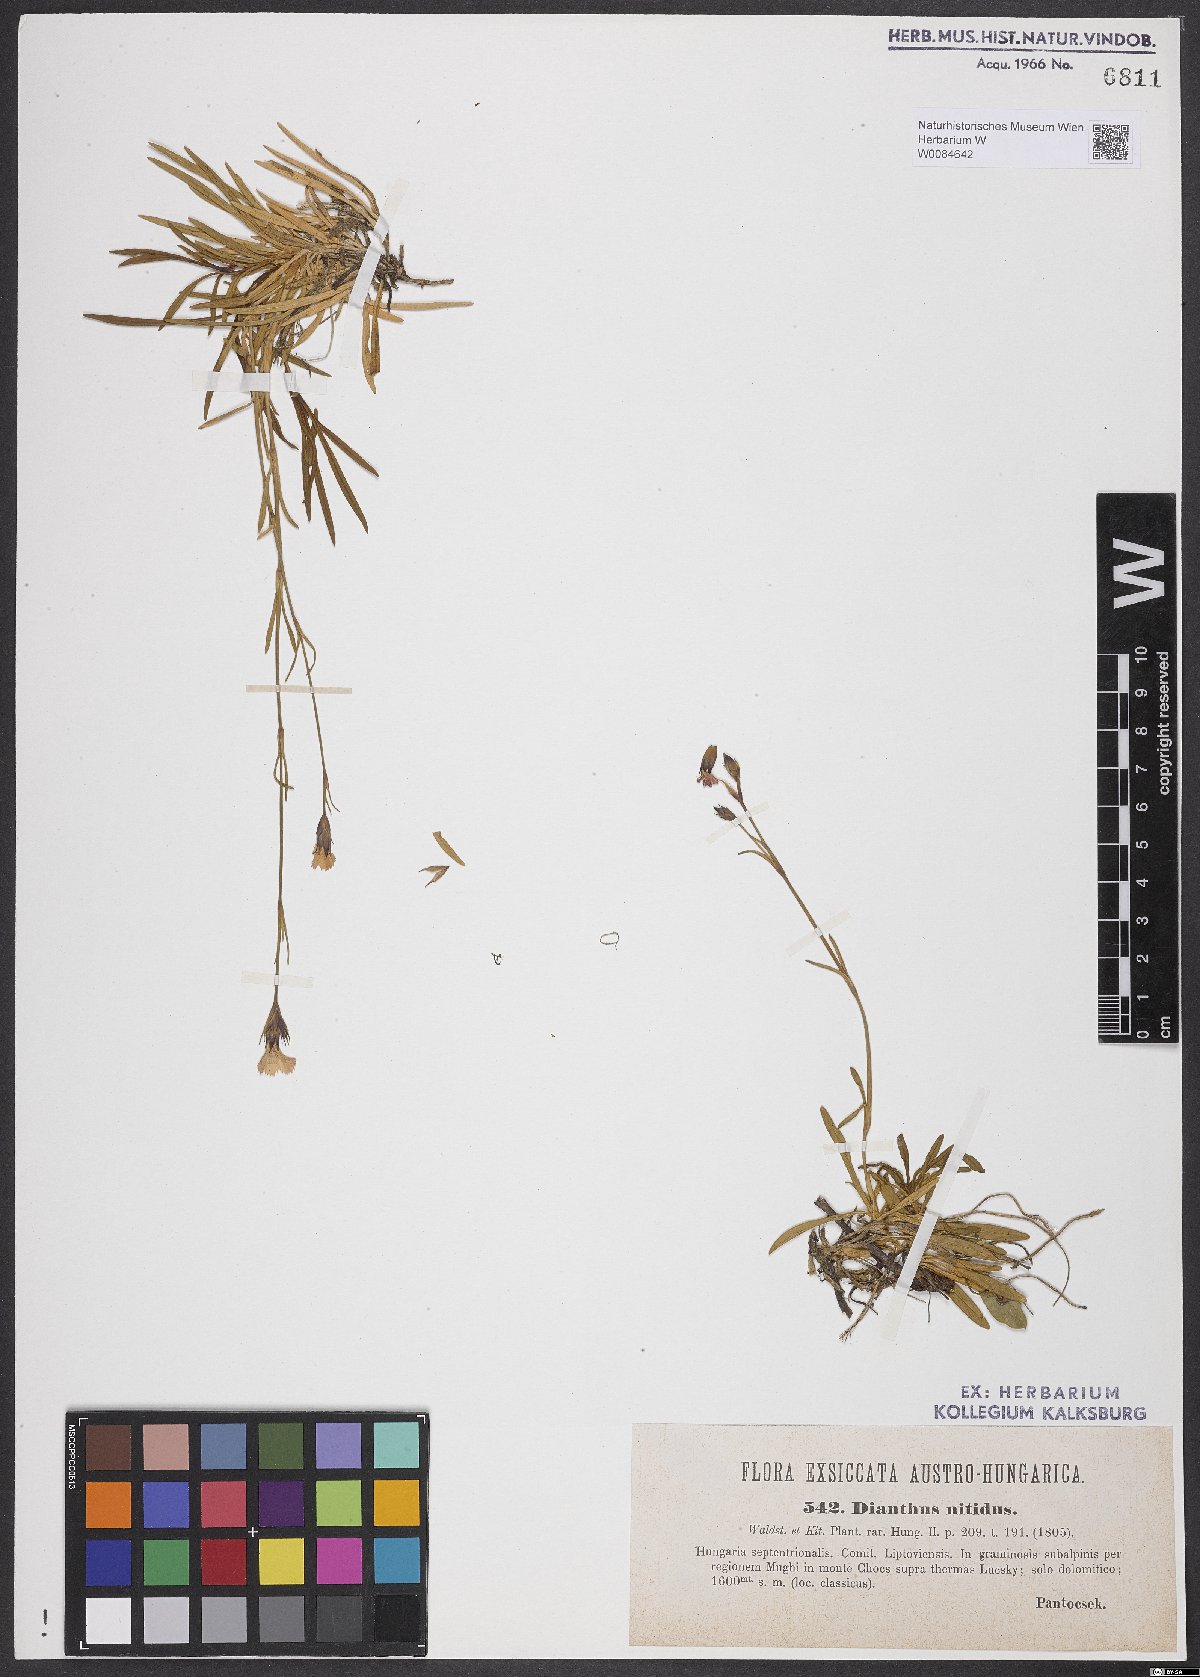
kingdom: Plantae
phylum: Tracheophyta
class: Magnoliopsida
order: Caryophyllales
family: Caryophyllaceae
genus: Dianthus
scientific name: Dianthus nitidus
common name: Carpathian glossy pink
